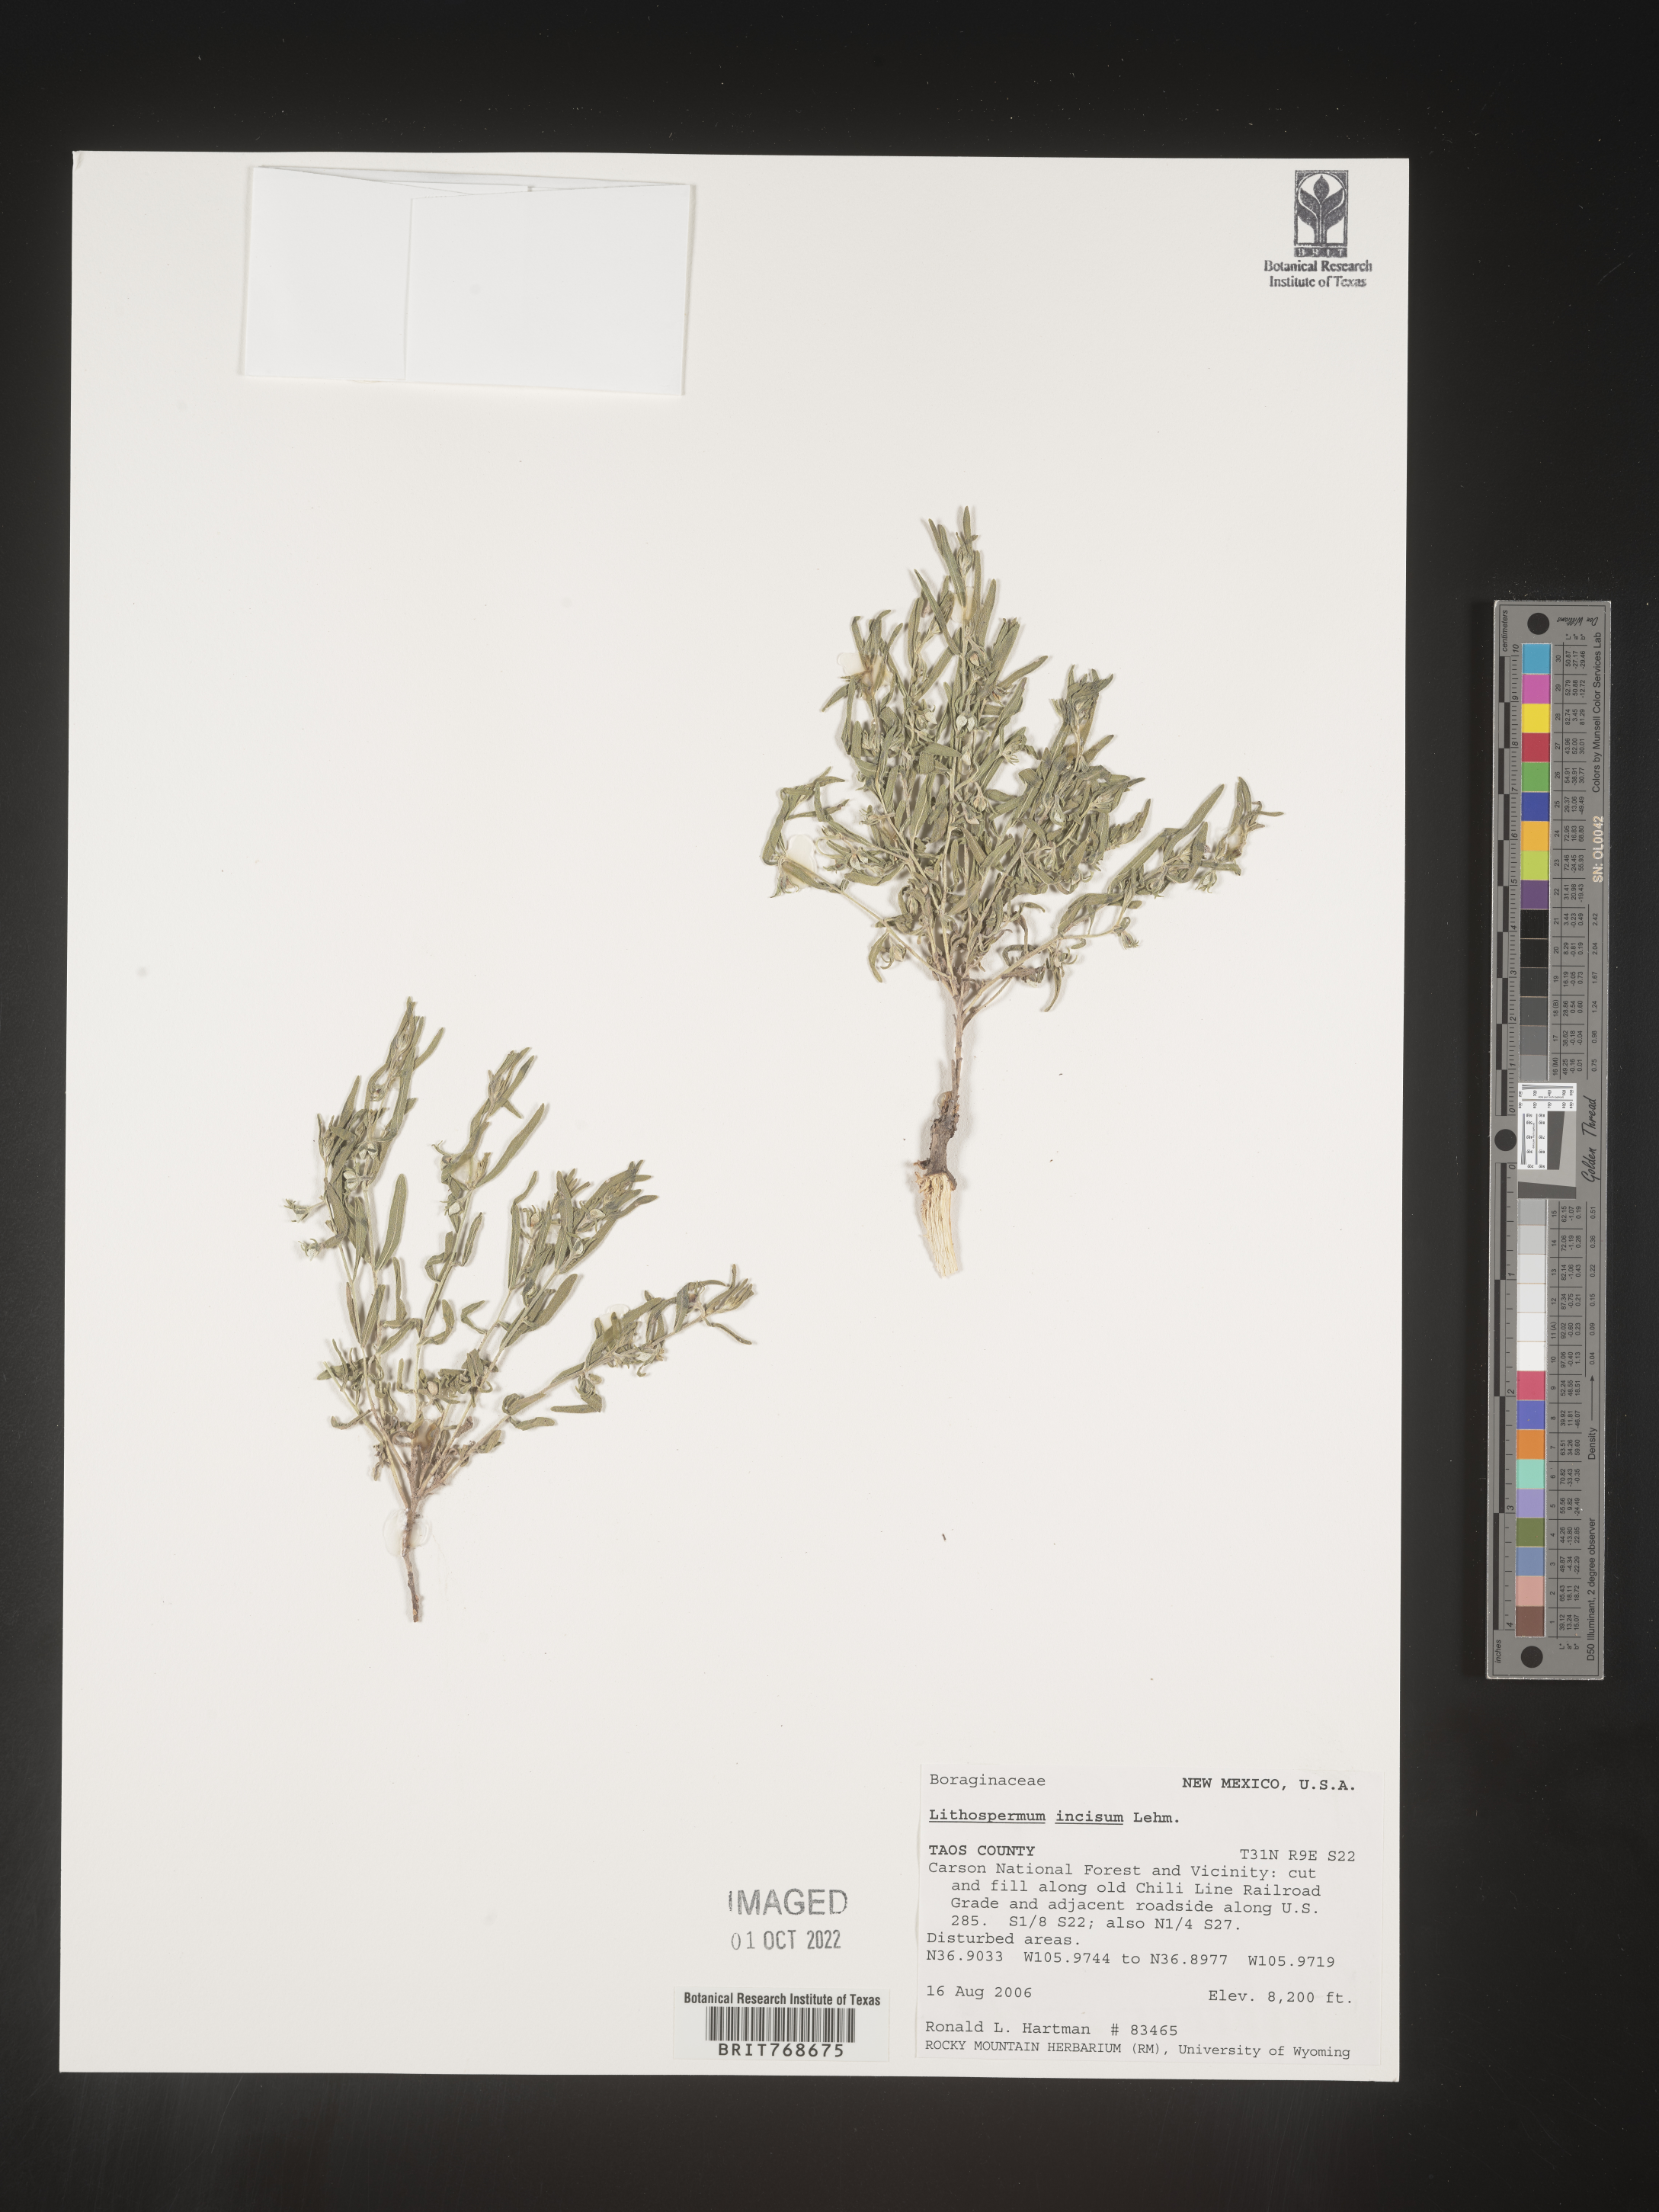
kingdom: Plantae
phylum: Tracheophyta
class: Magnoliopsida
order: Boraginales
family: Boraginaceae
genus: Lithospermum
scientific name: Lithospermum incisum
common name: Fringed gromwell
